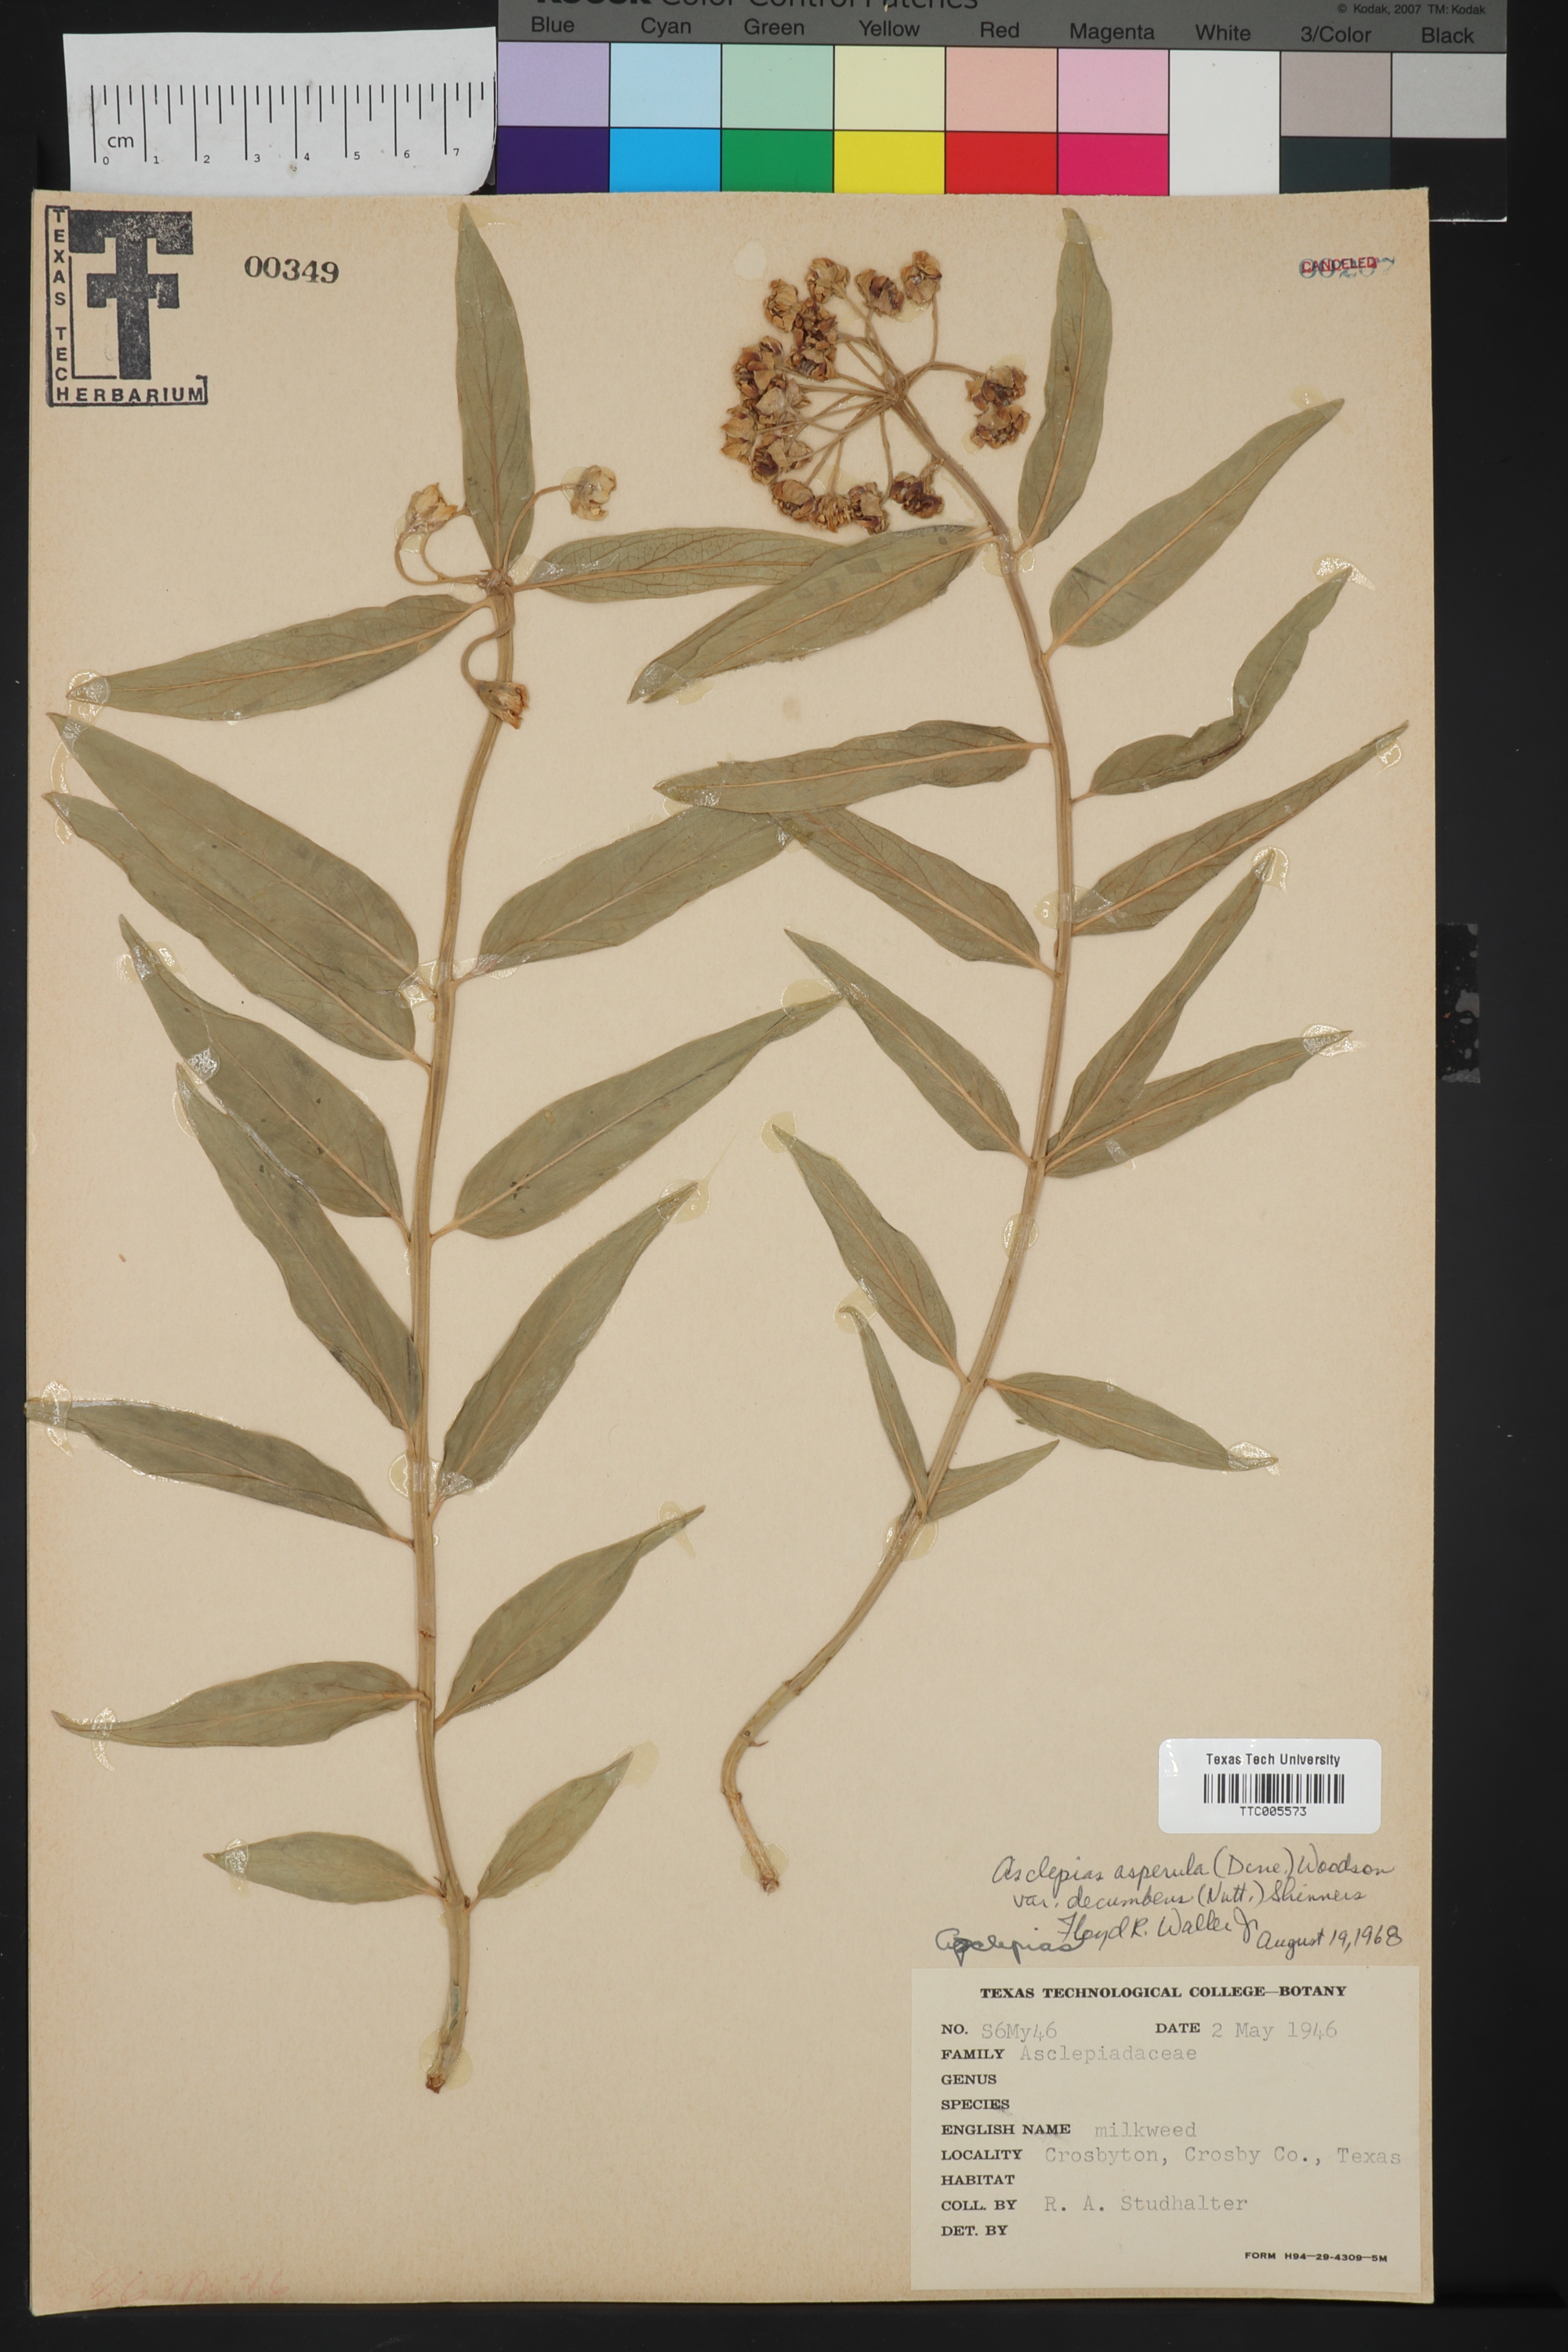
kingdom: Plantae
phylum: Tracheophyta
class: Magnoliopsida
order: Gentianales
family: Apocynaceae
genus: Asclepias
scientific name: Asclepias asperula
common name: Antelope horns
